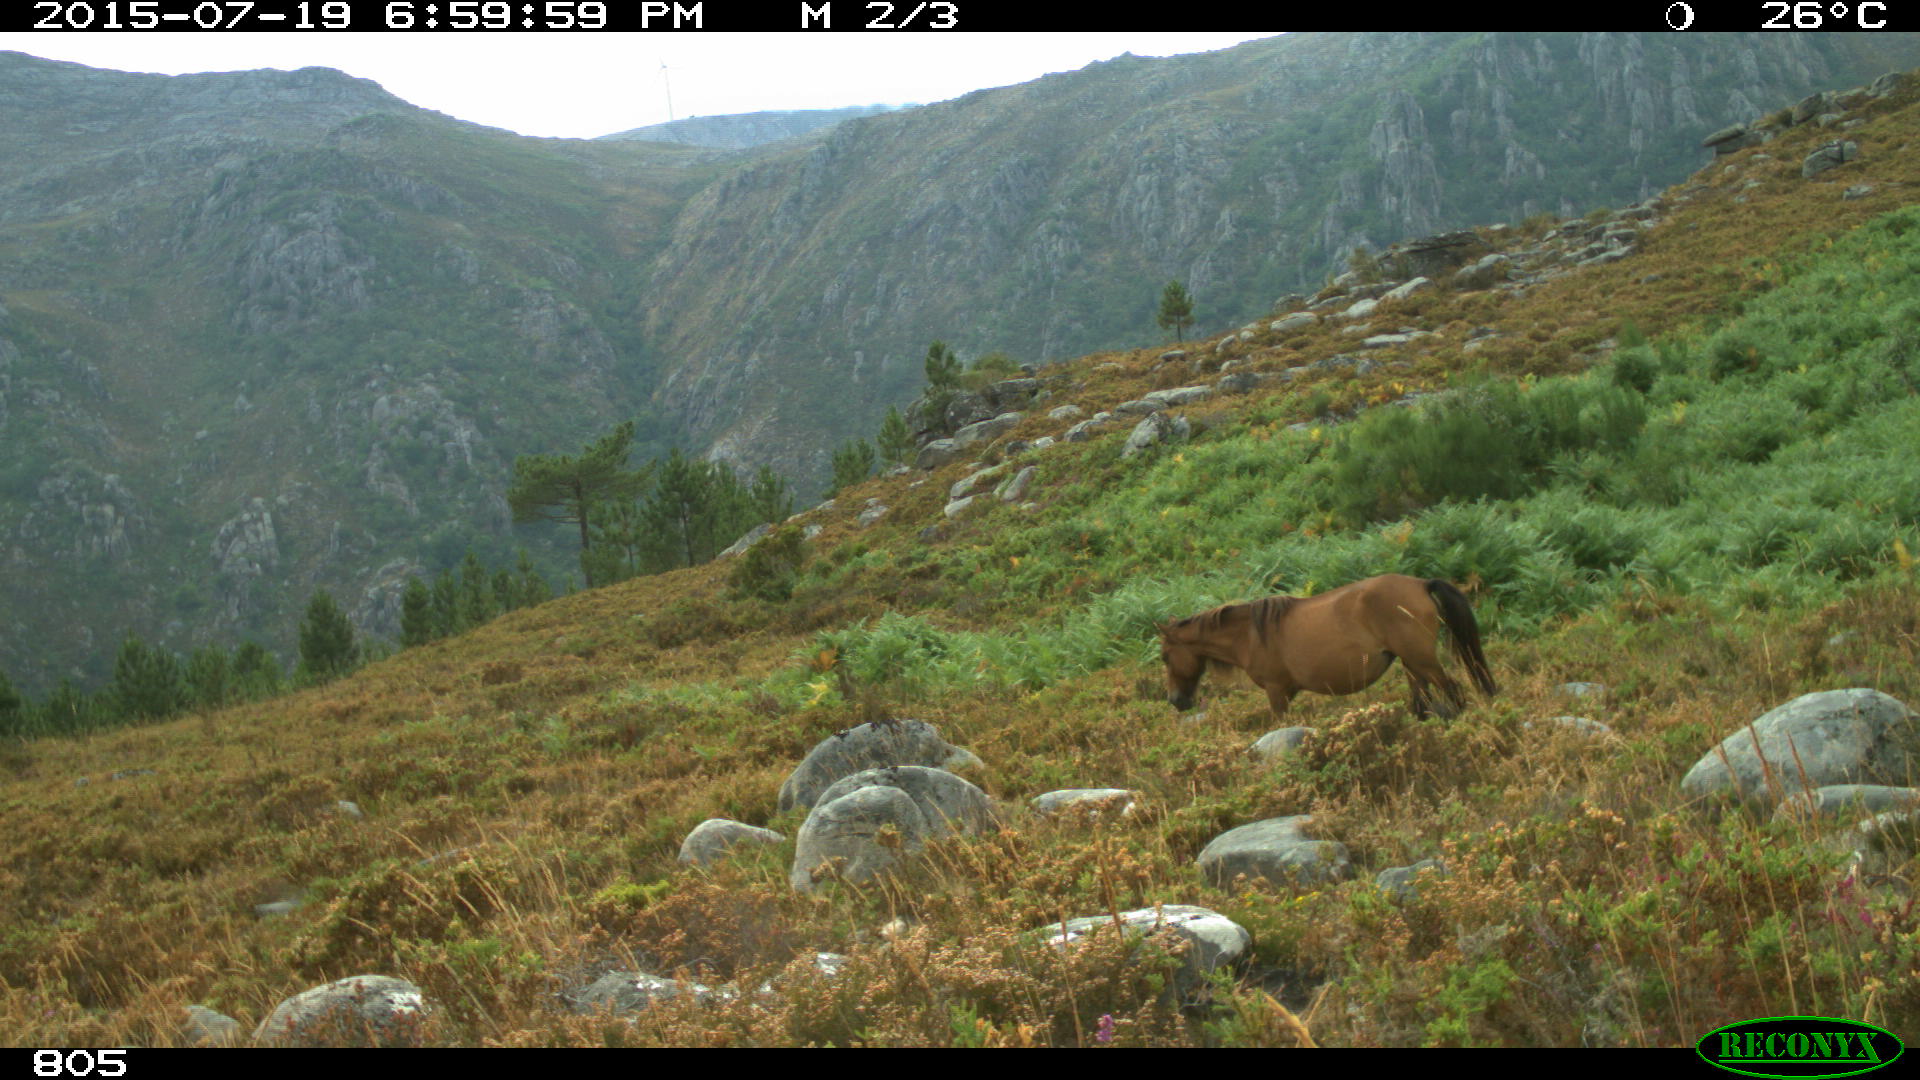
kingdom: Animalia
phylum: Chordata
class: Mammalia
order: Perissodactyla
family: Equidae
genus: Equus
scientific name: Equus caballus
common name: Horse
